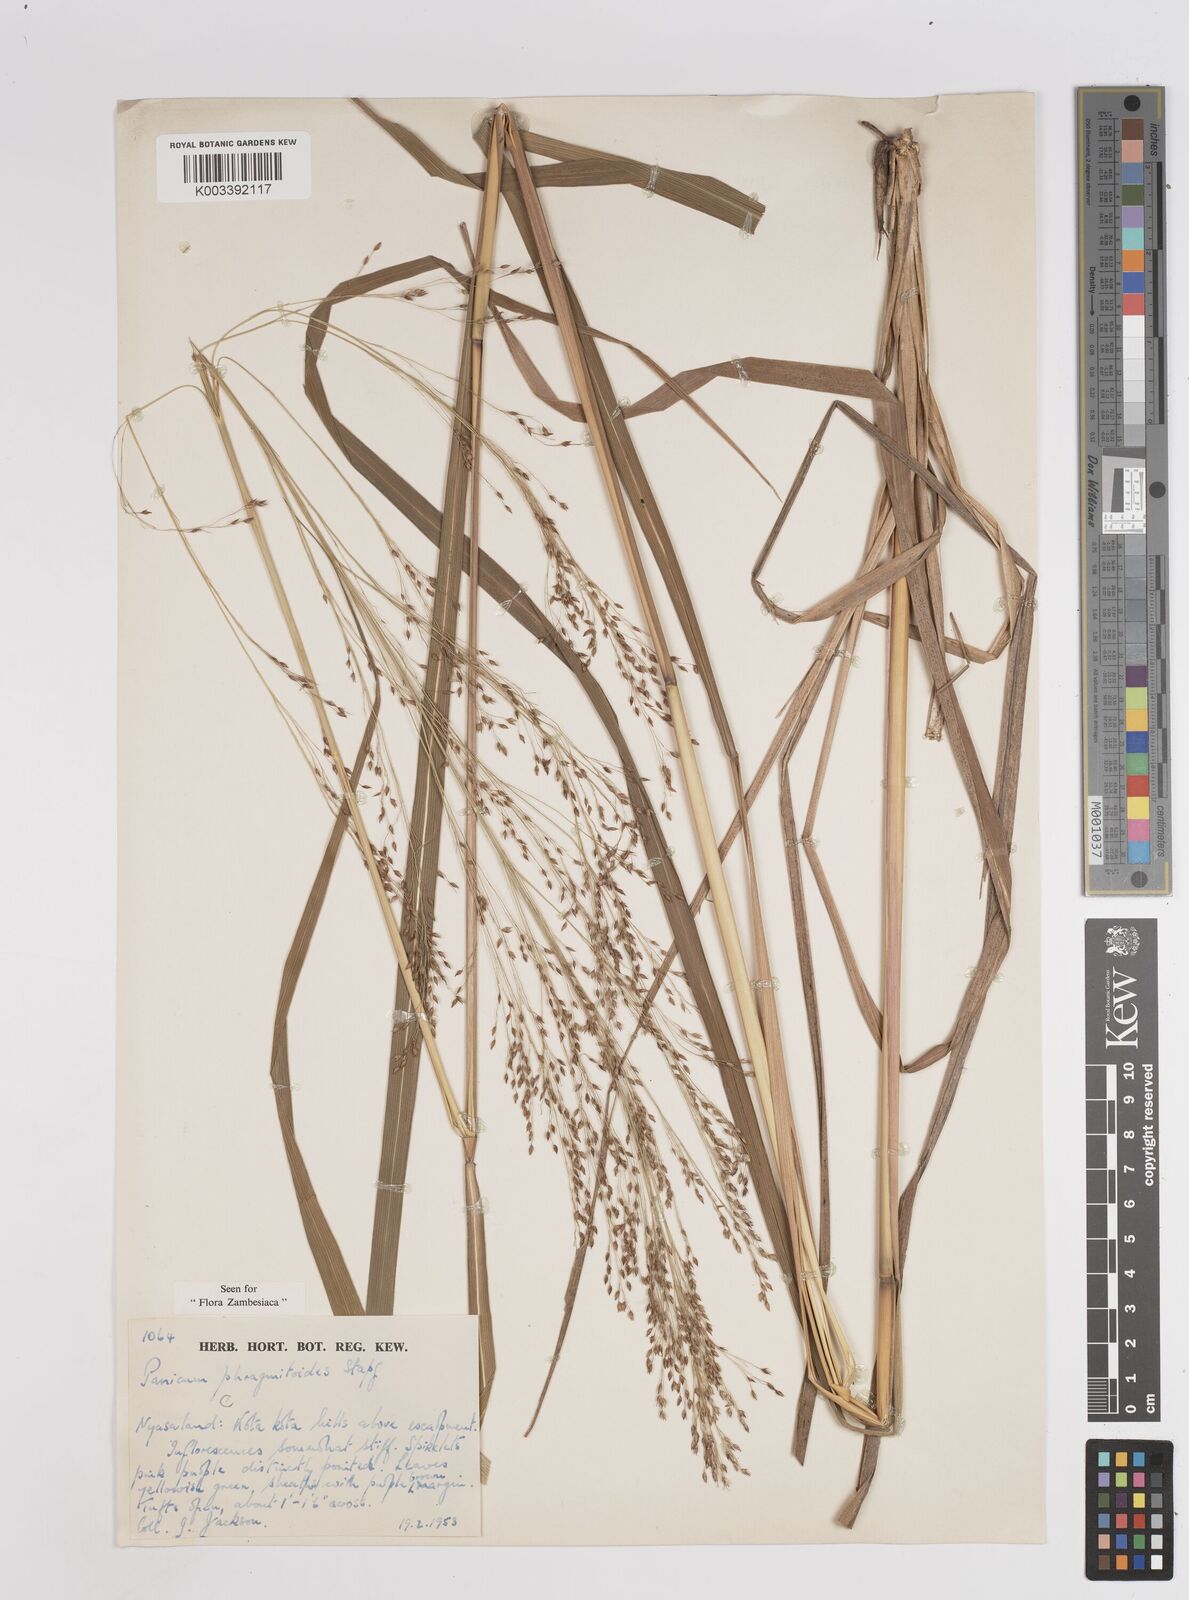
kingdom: Plantae
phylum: Tracheophyta
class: Liliopsida
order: Poales
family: Poaceae
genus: Panicum
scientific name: Panicum phragmitoides
